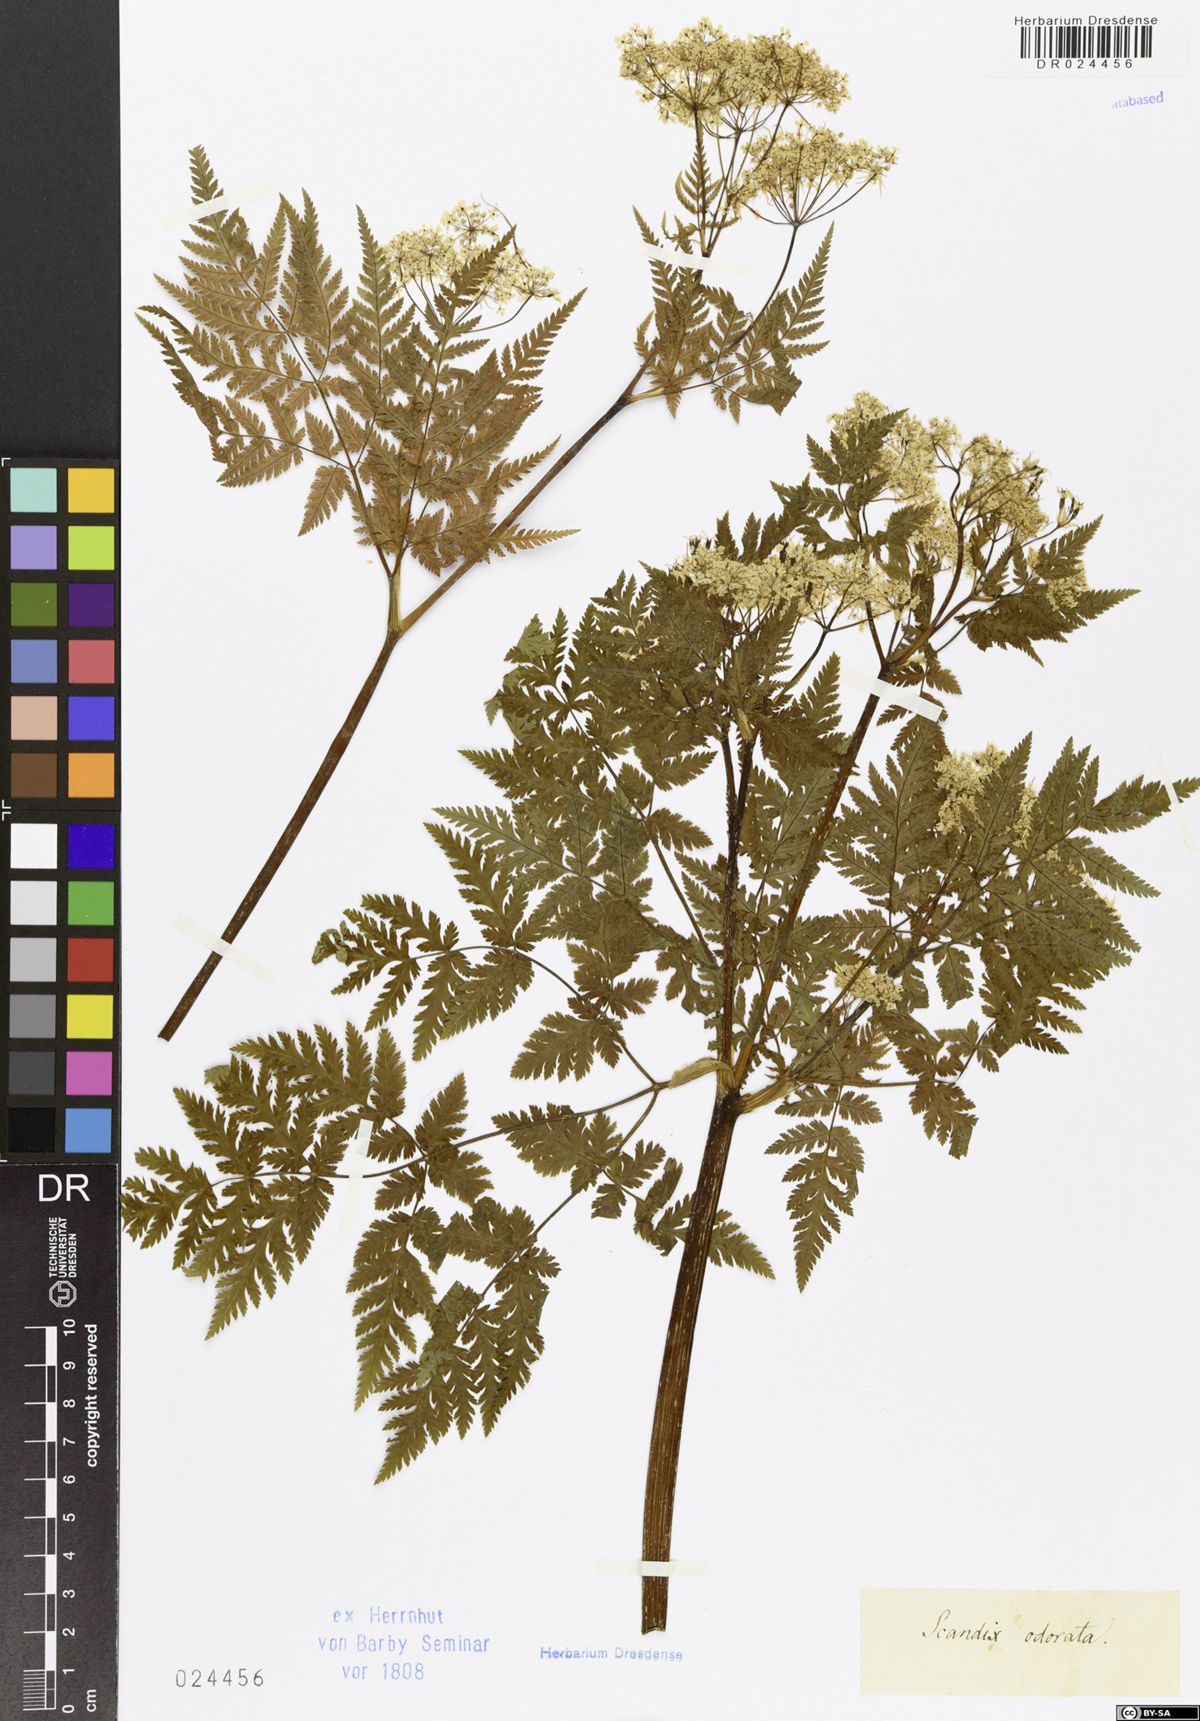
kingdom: Plantae
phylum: Tracheophyta
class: Magnoliopsida
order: Apiales
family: Apiaceae
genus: Myrrhis
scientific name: Myrrhis odorata
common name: Sweet cicely
